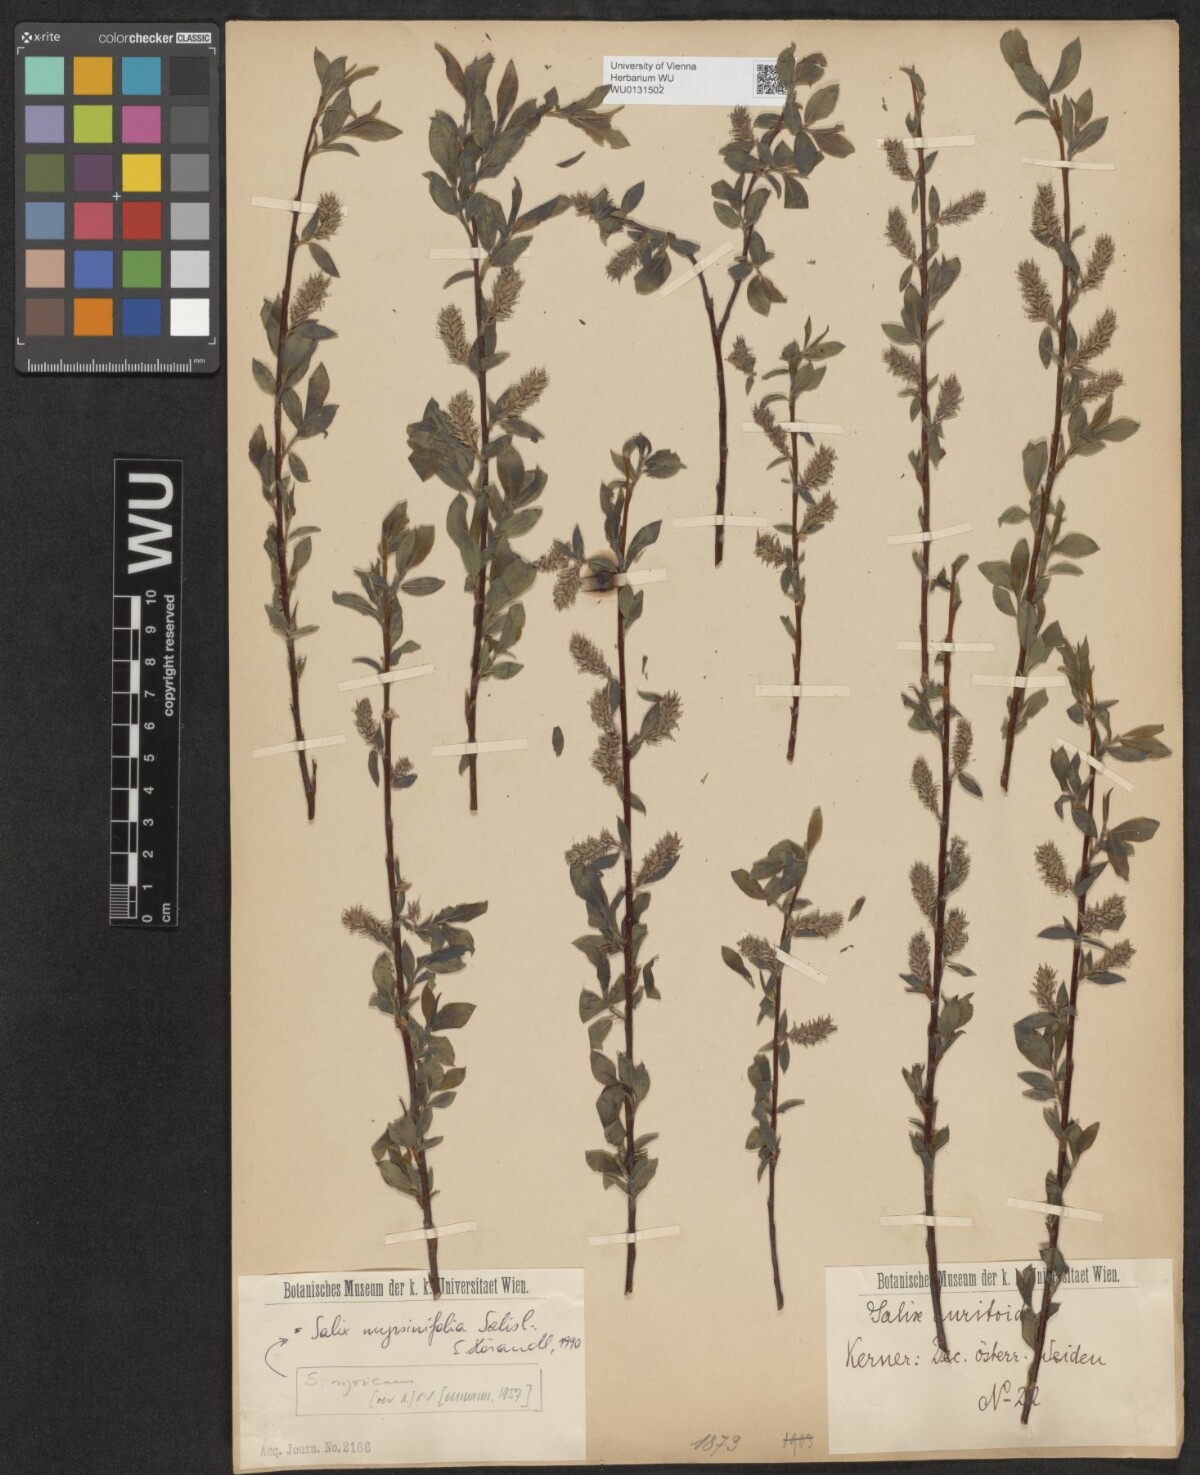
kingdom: Plantae
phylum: Tracheophyta
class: Magnoliopsida
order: Malpighiales
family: Salicaceae
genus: Salix
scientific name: Salix myrsinifolia
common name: Dark-leaved willow
